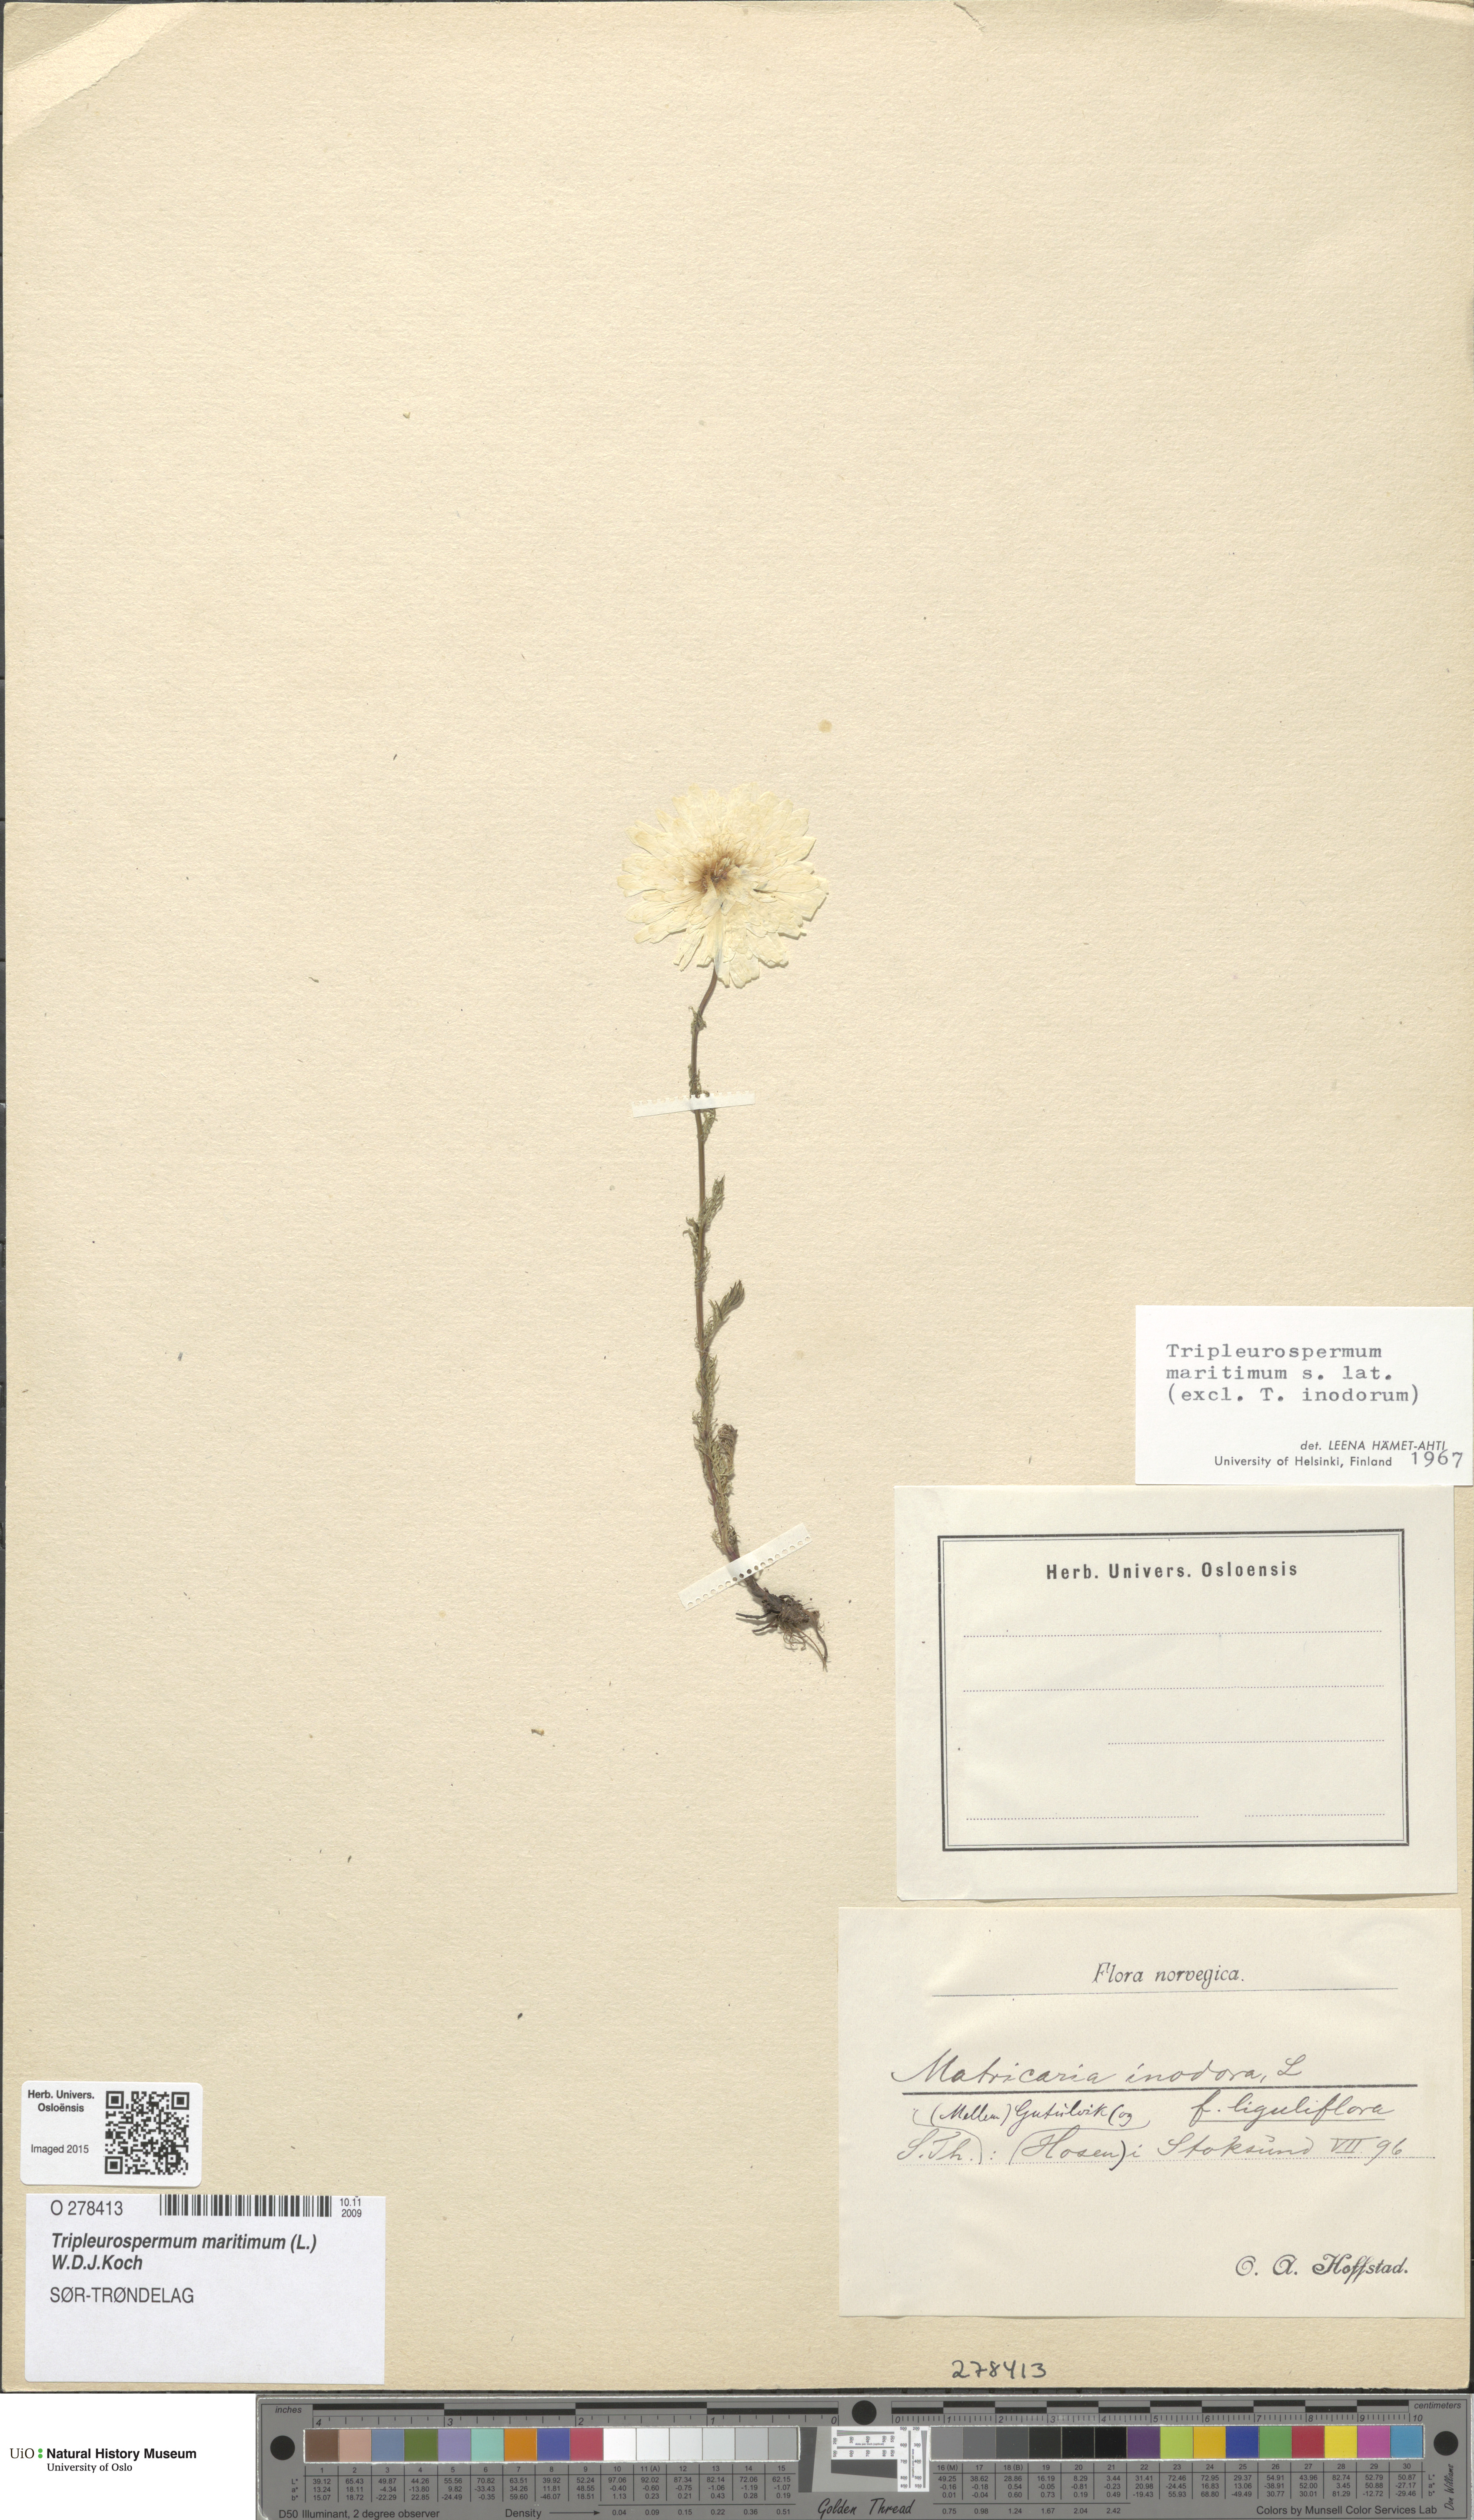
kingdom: Plantae
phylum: Tracheophyta
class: Magnoliopsida
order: Asterales
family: Asteraceae
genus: Tripleurospermum
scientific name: Tripleurospermum maritimum
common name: Sea mayweed
